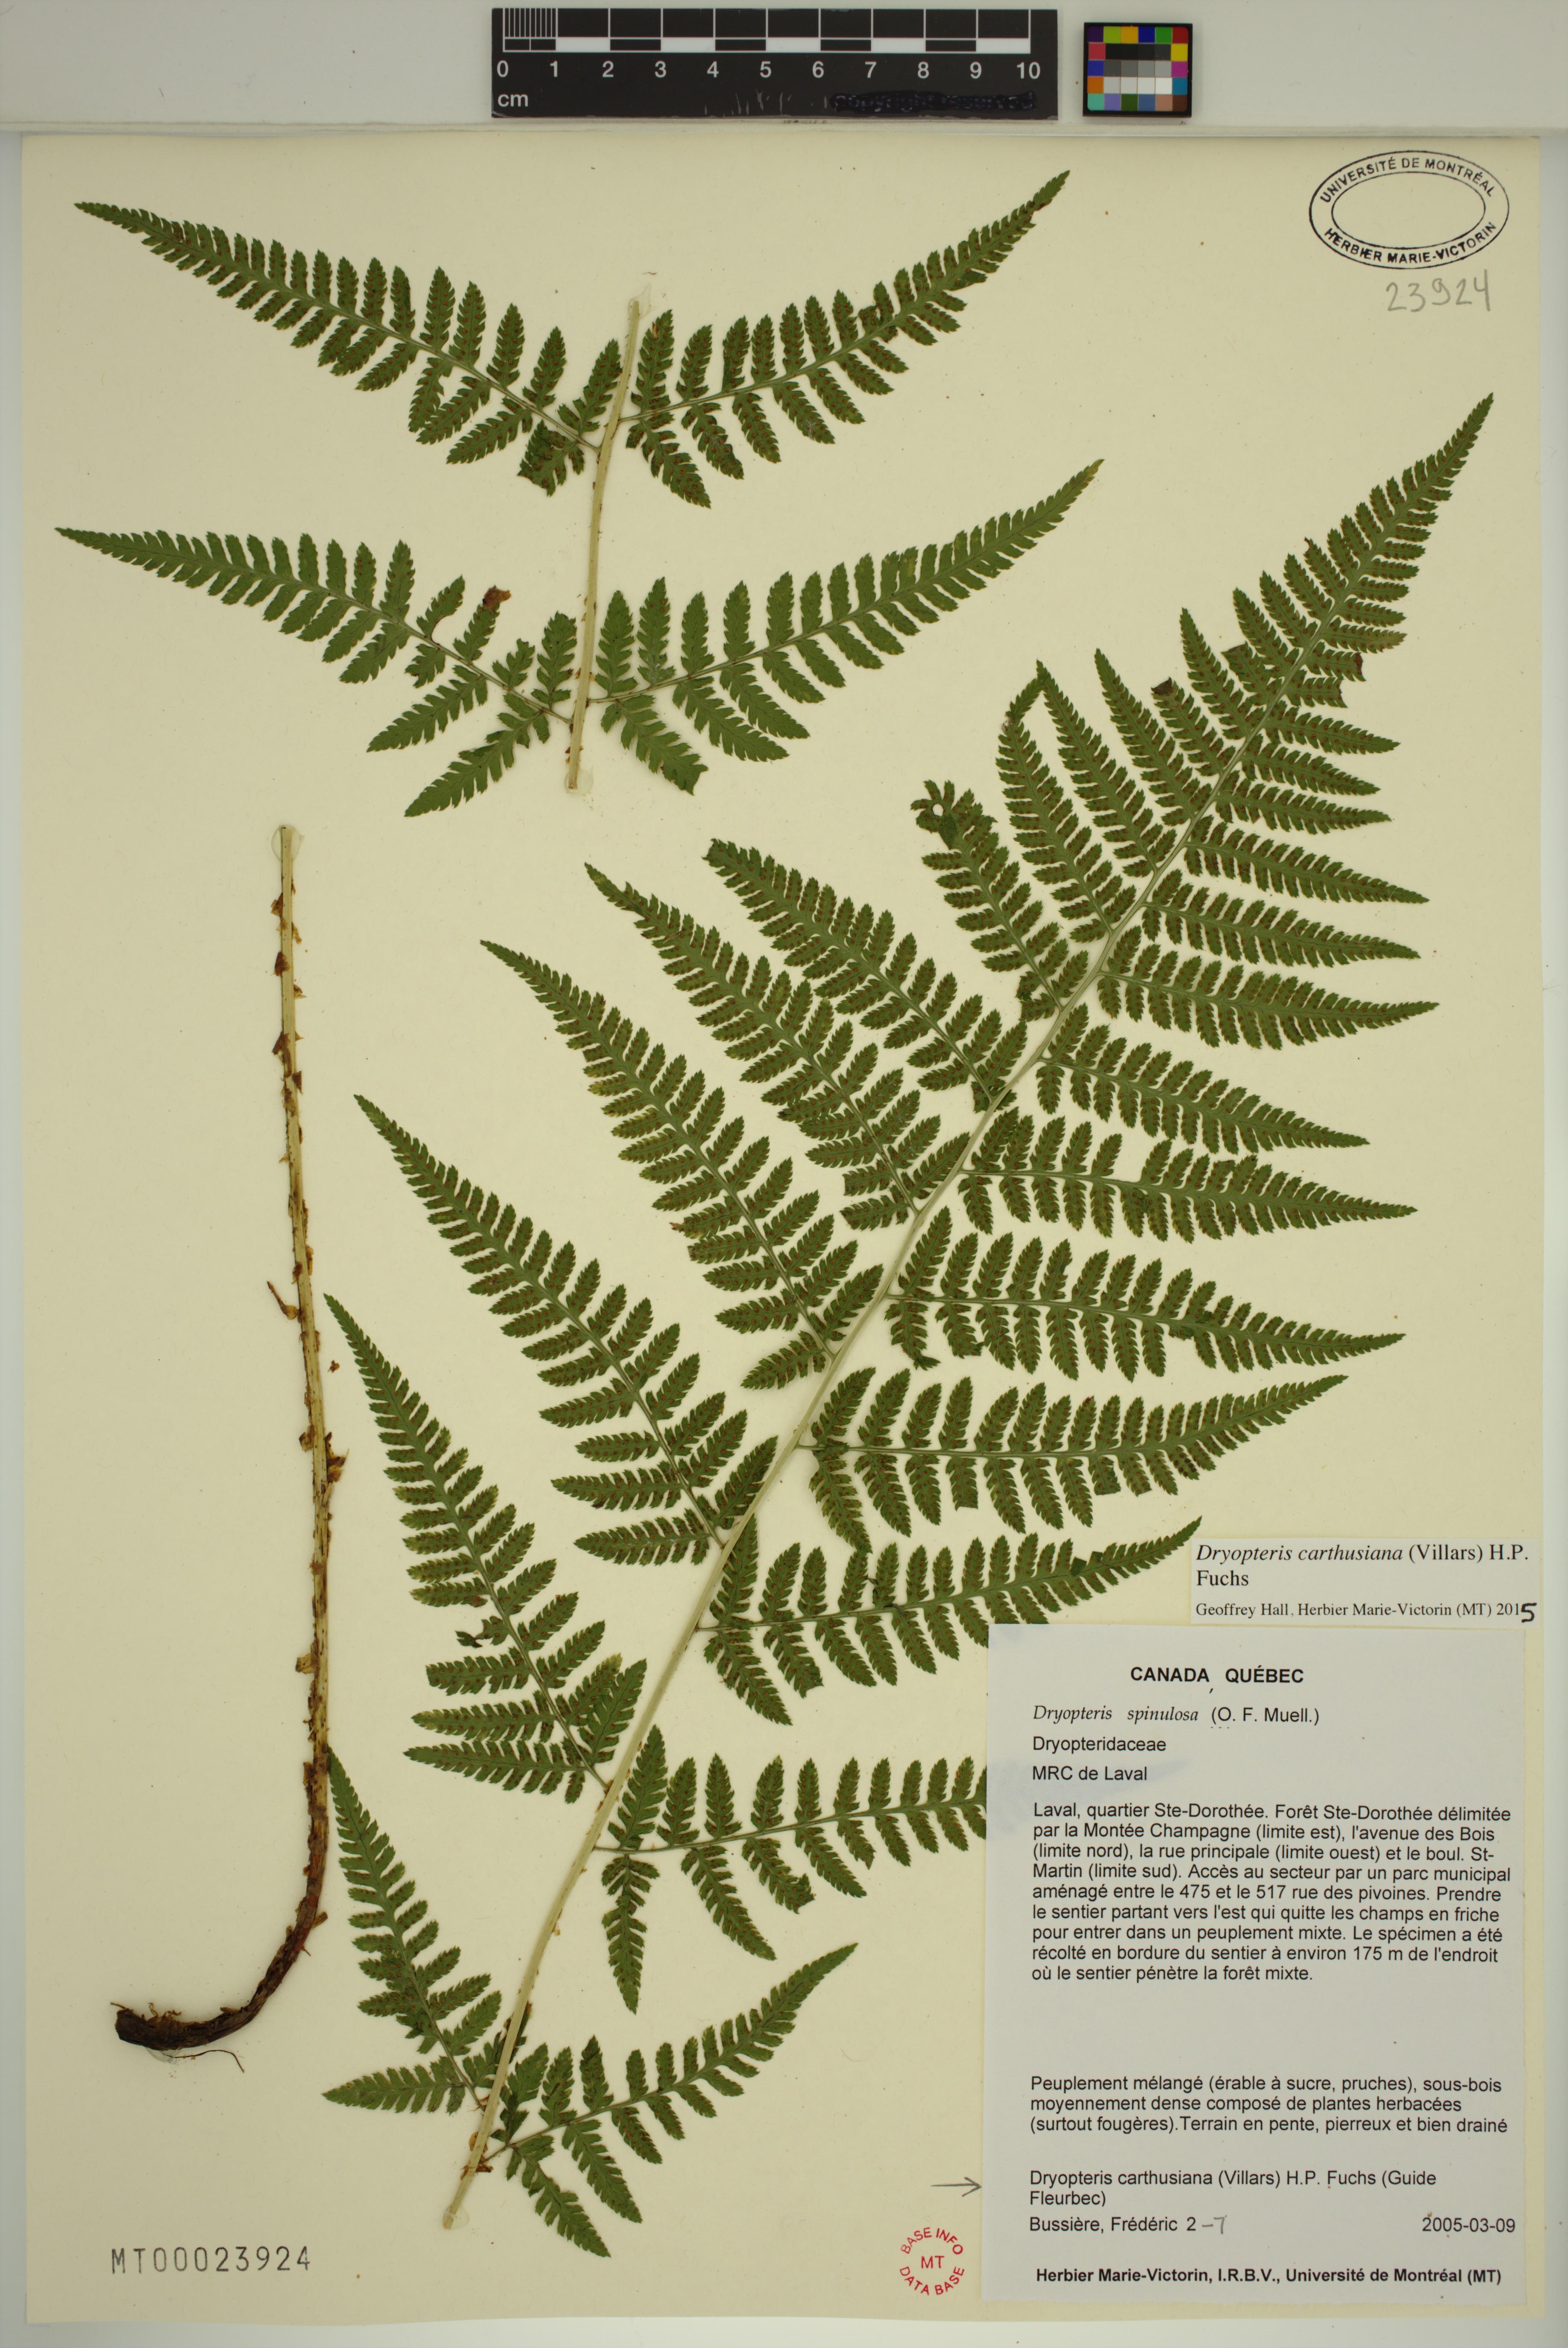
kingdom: Plantae
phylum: Tracheophyta
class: Liliopsida
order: Alismatales
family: Alismataceae
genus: Alisma
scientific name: Alisma triviale
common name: Northern water-plantain
